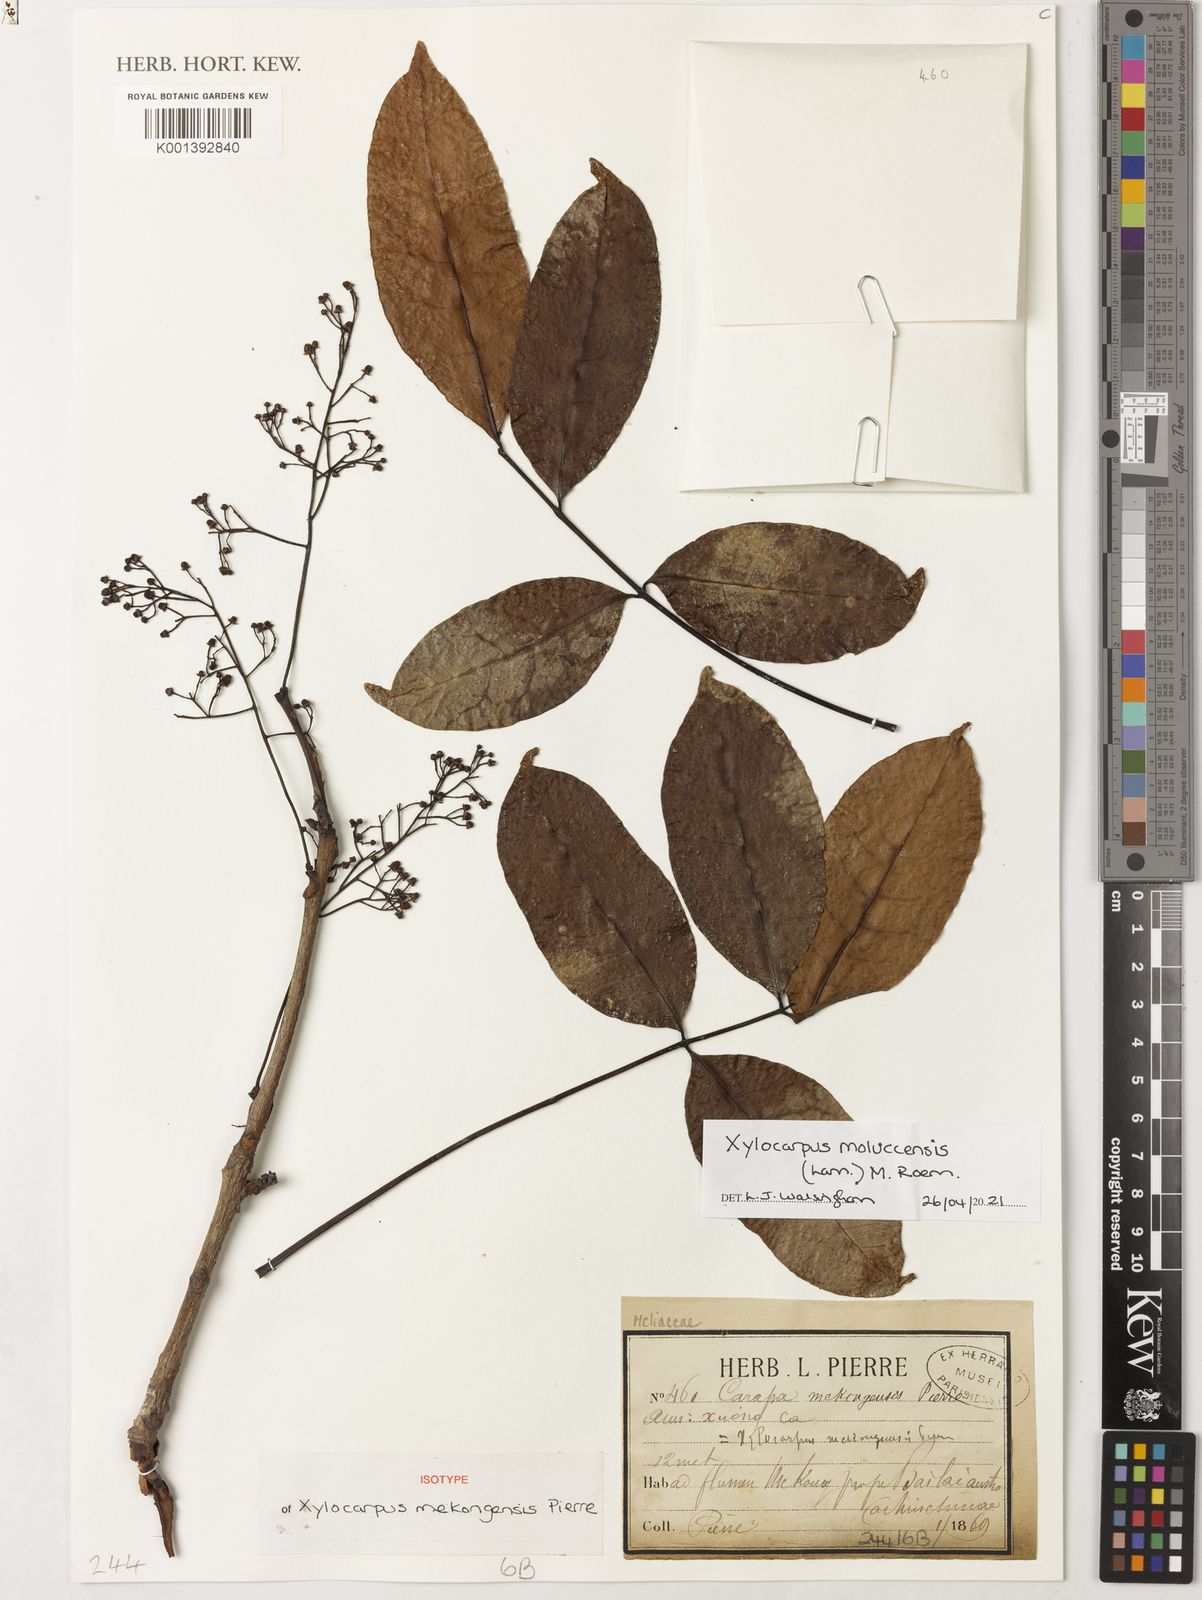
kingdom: Plantae
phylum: Tracheophyta
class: Magnoliopsida
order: Sapindales
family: Meliaceae
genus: Xylocarpus
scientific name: Xylocarpus moluccensis
